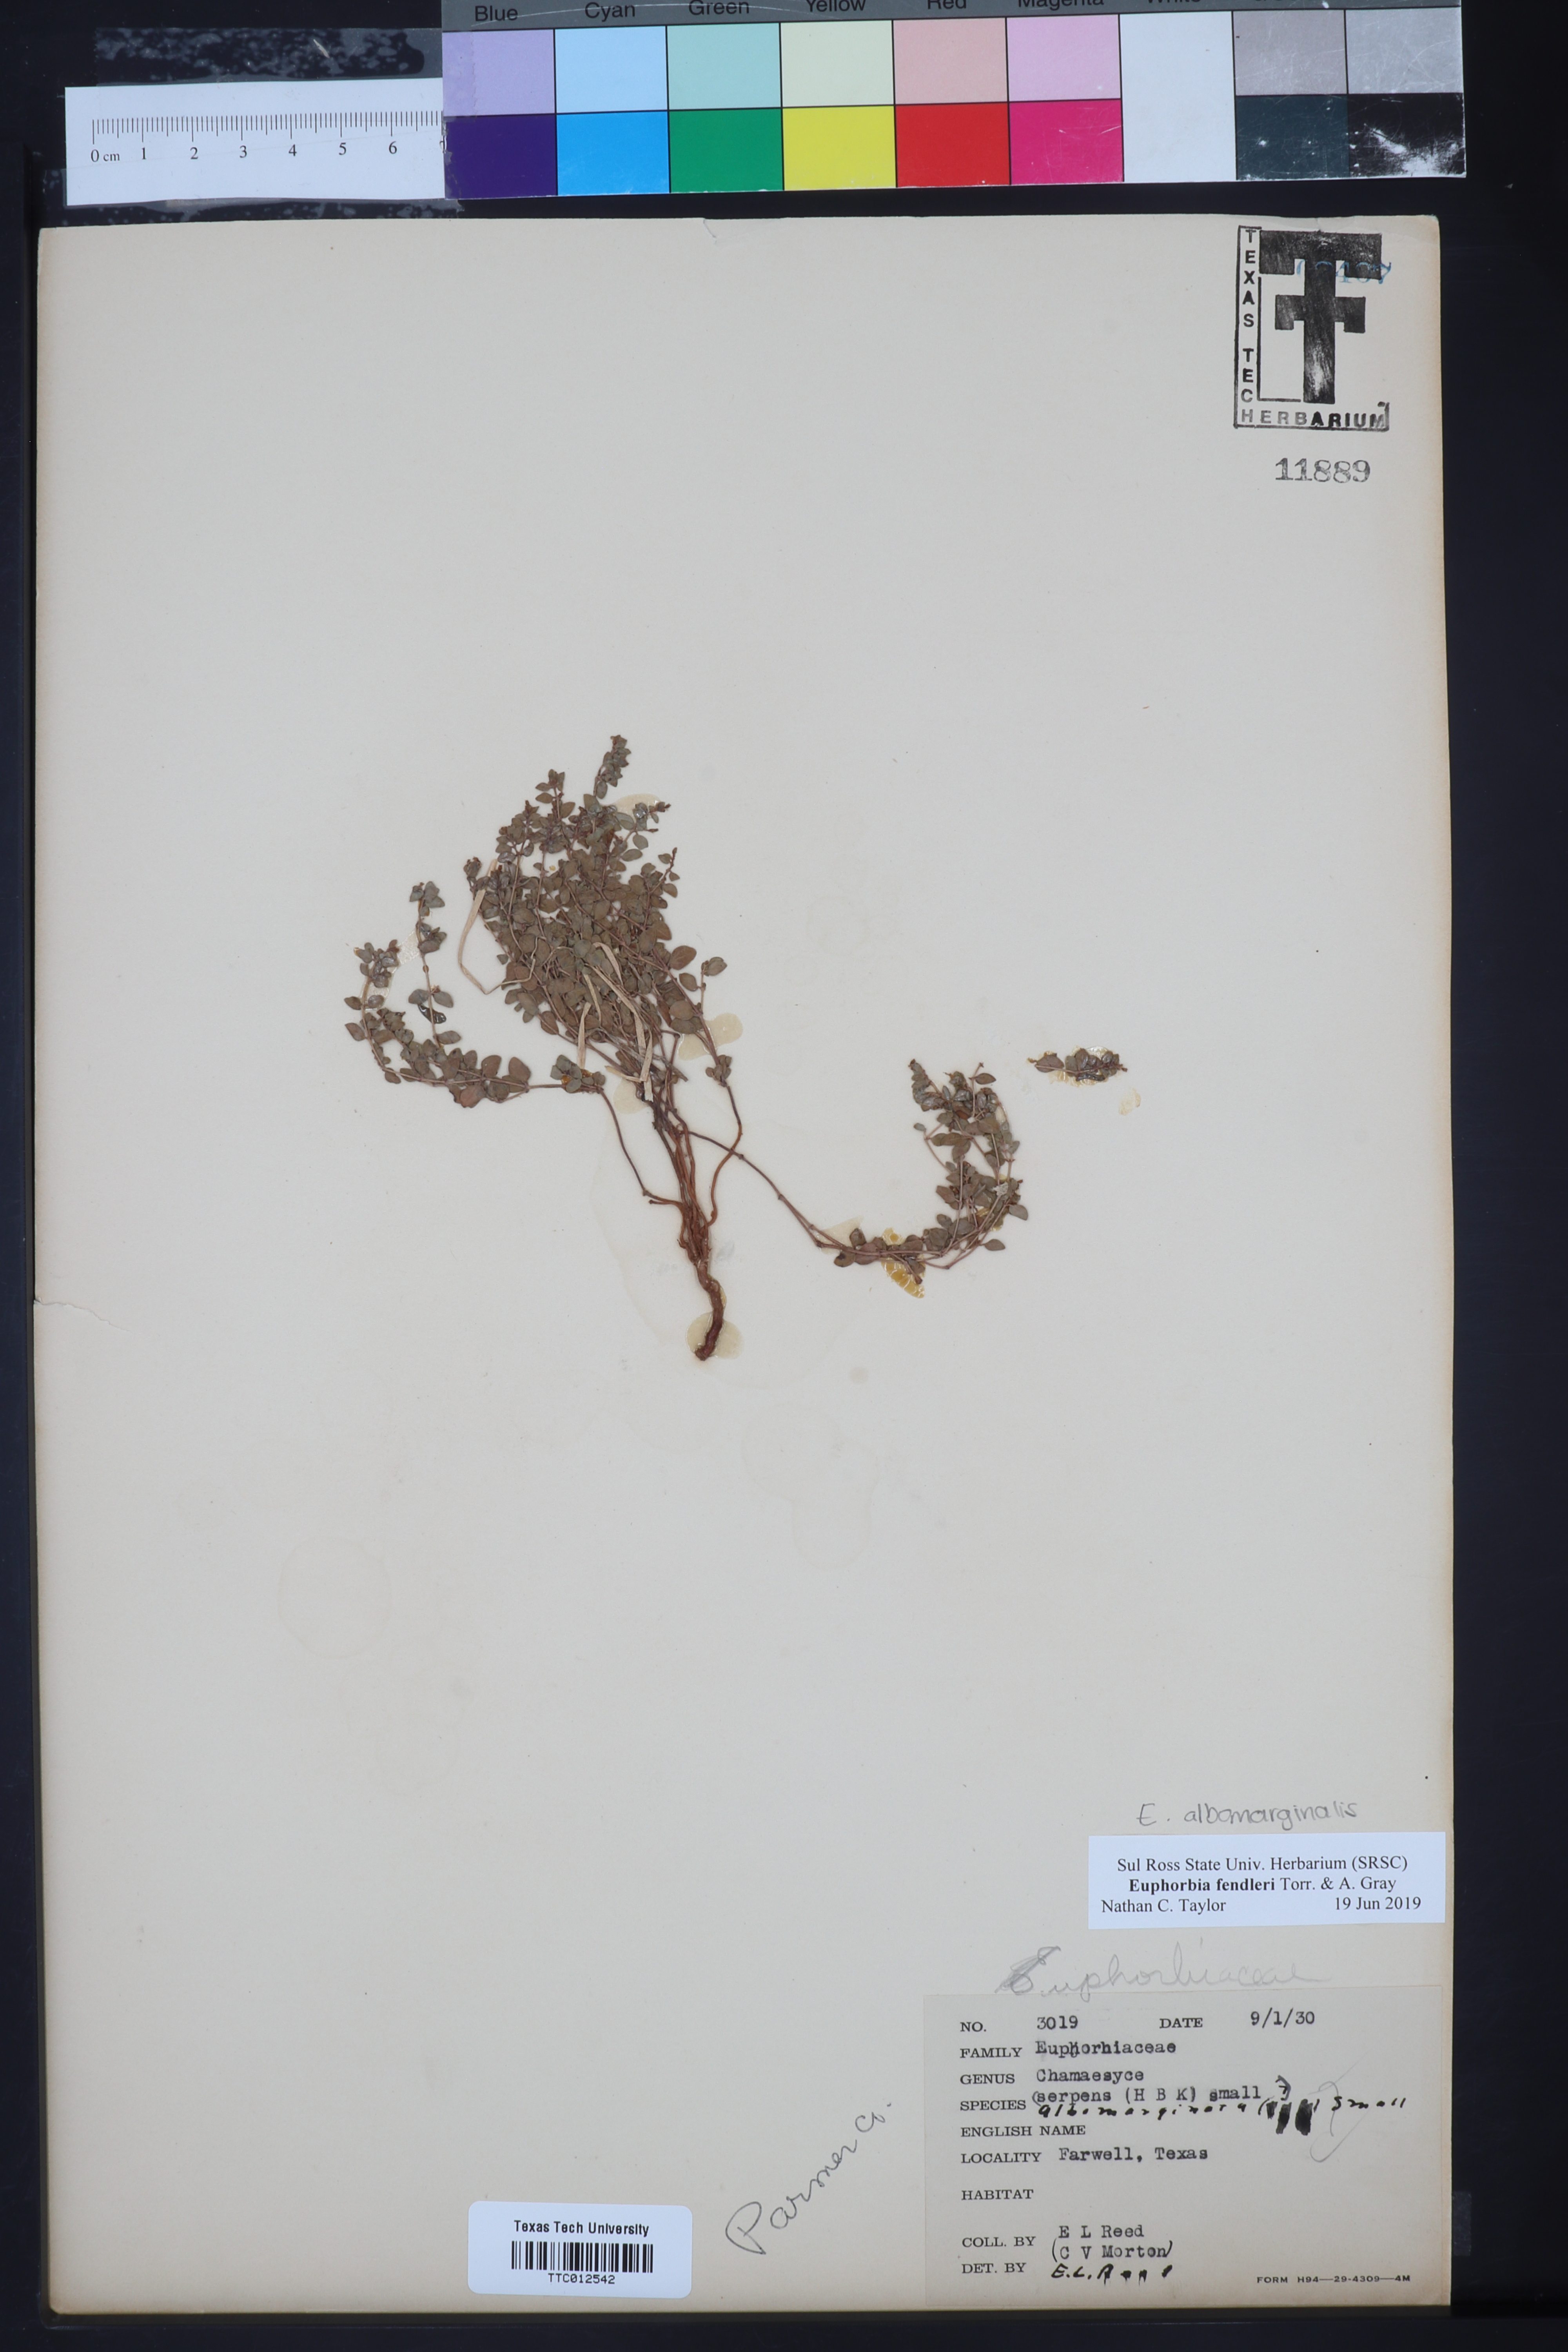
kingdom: Plantae
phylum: Tracheophyta
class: Magnoliopsida
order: Malpighiales
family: Euphorbiaceae
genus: Euphorbia
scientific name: Euphorbia albomarginata
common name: Whitemargin sandmat
